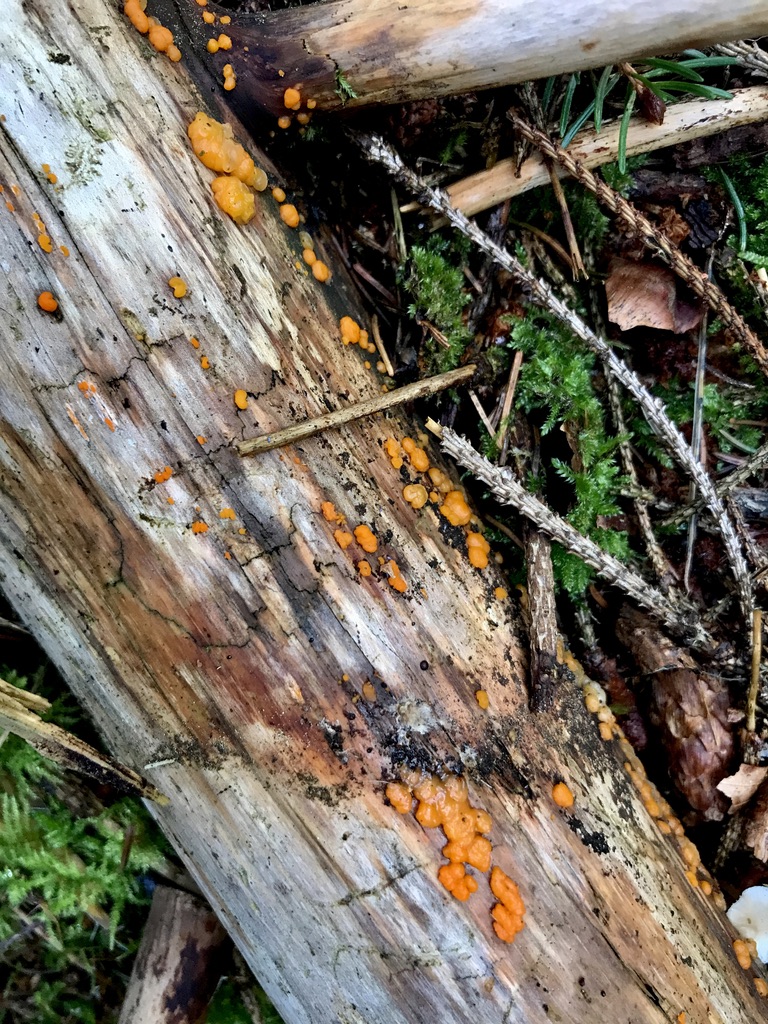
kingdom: Fungi
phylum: Basidiomycota
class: Dacrymycetes
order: Dacrymycetales
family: Dacrymycetaceae
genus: Dacrymyces
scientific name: Dacrymyces stillatus
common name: almindelig tåresvamp
